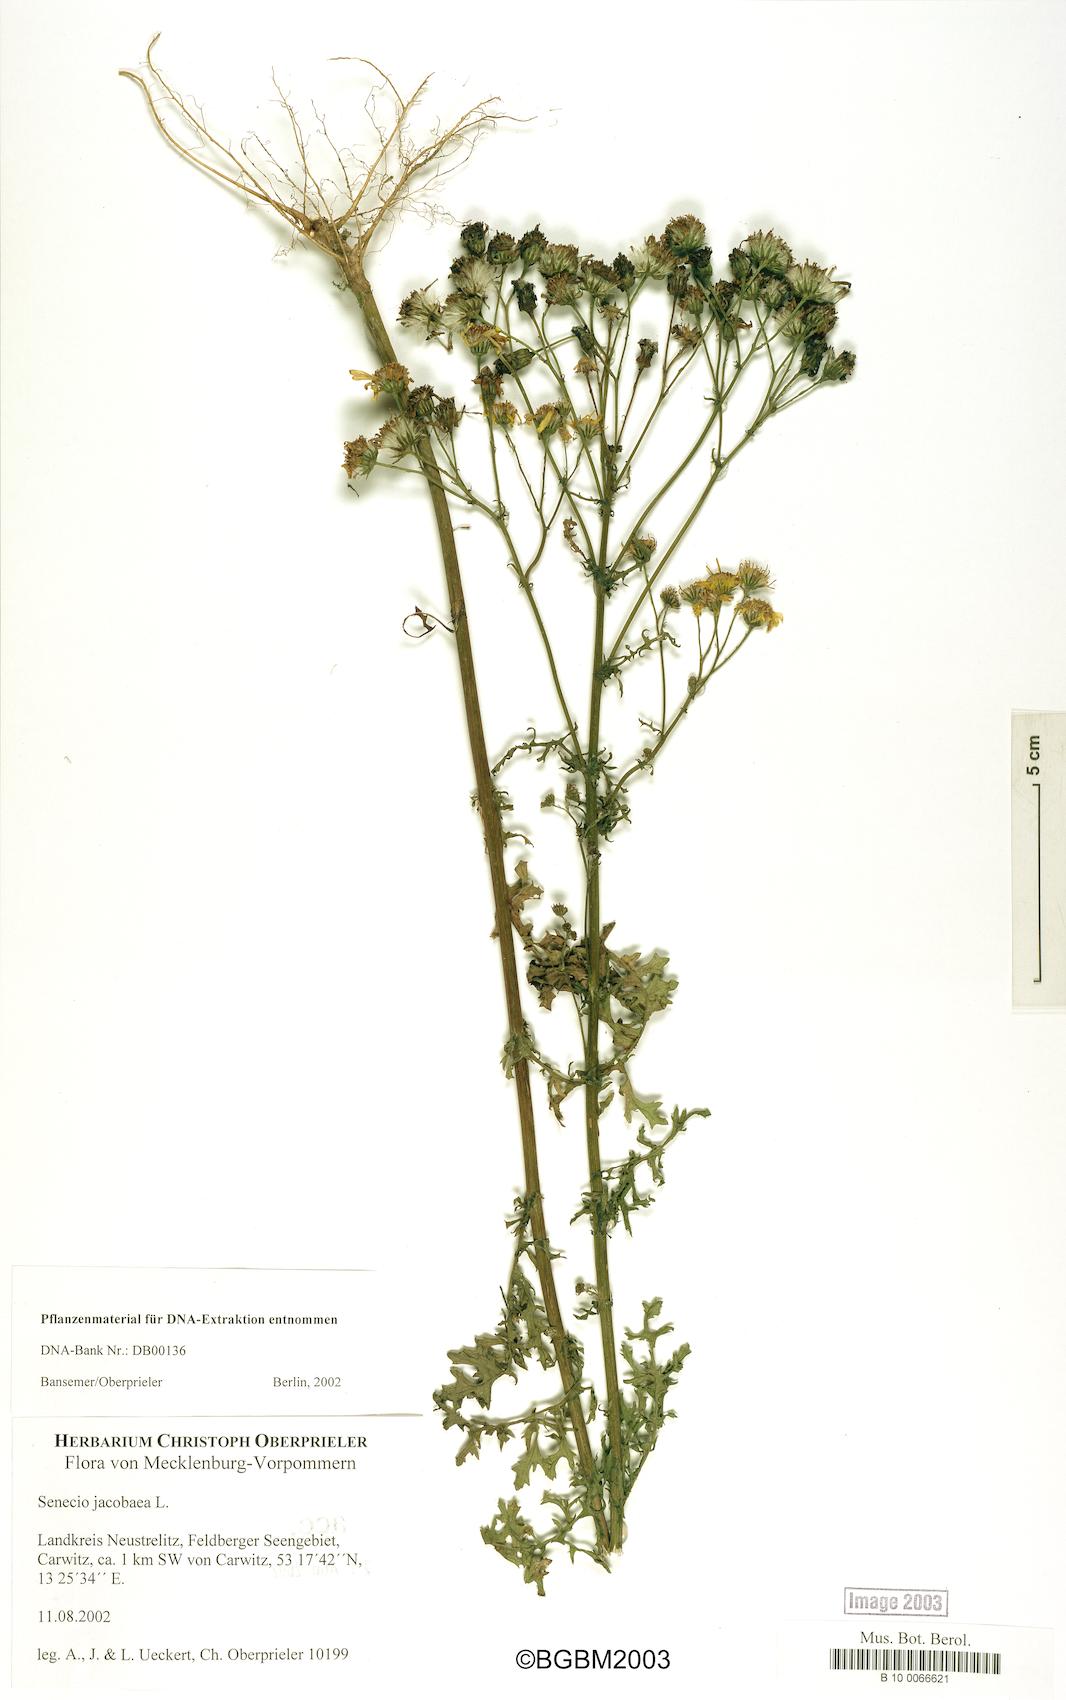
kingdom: Plantae
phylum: Tracheophyta
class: Magnoliopsida
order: Asterales
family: Asteraceae
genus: Jacobaea
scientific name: Jacobaea vulgaris
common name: Stinking willie
